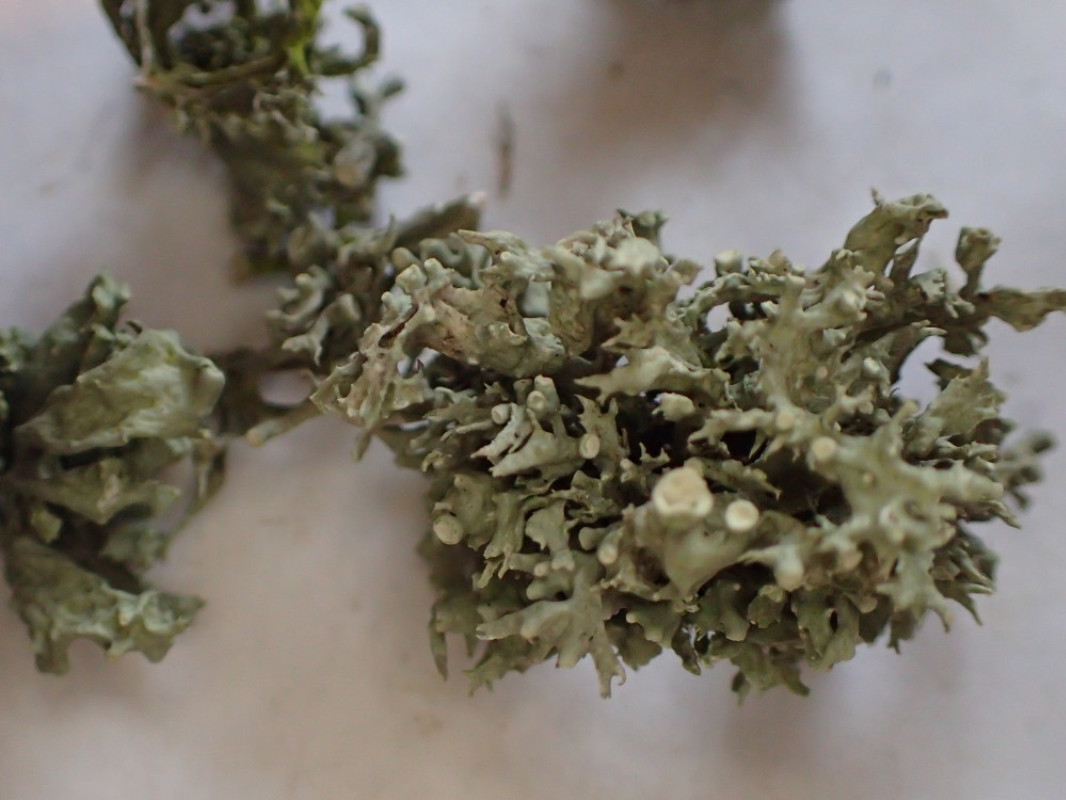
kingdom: Fungi
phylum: Ascomycota
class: Lecanoromycetes
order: Lecanorales
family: Ramalinaceae
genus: Ramalina
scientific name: Ramalina fastigiata
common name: tue-grenlav
